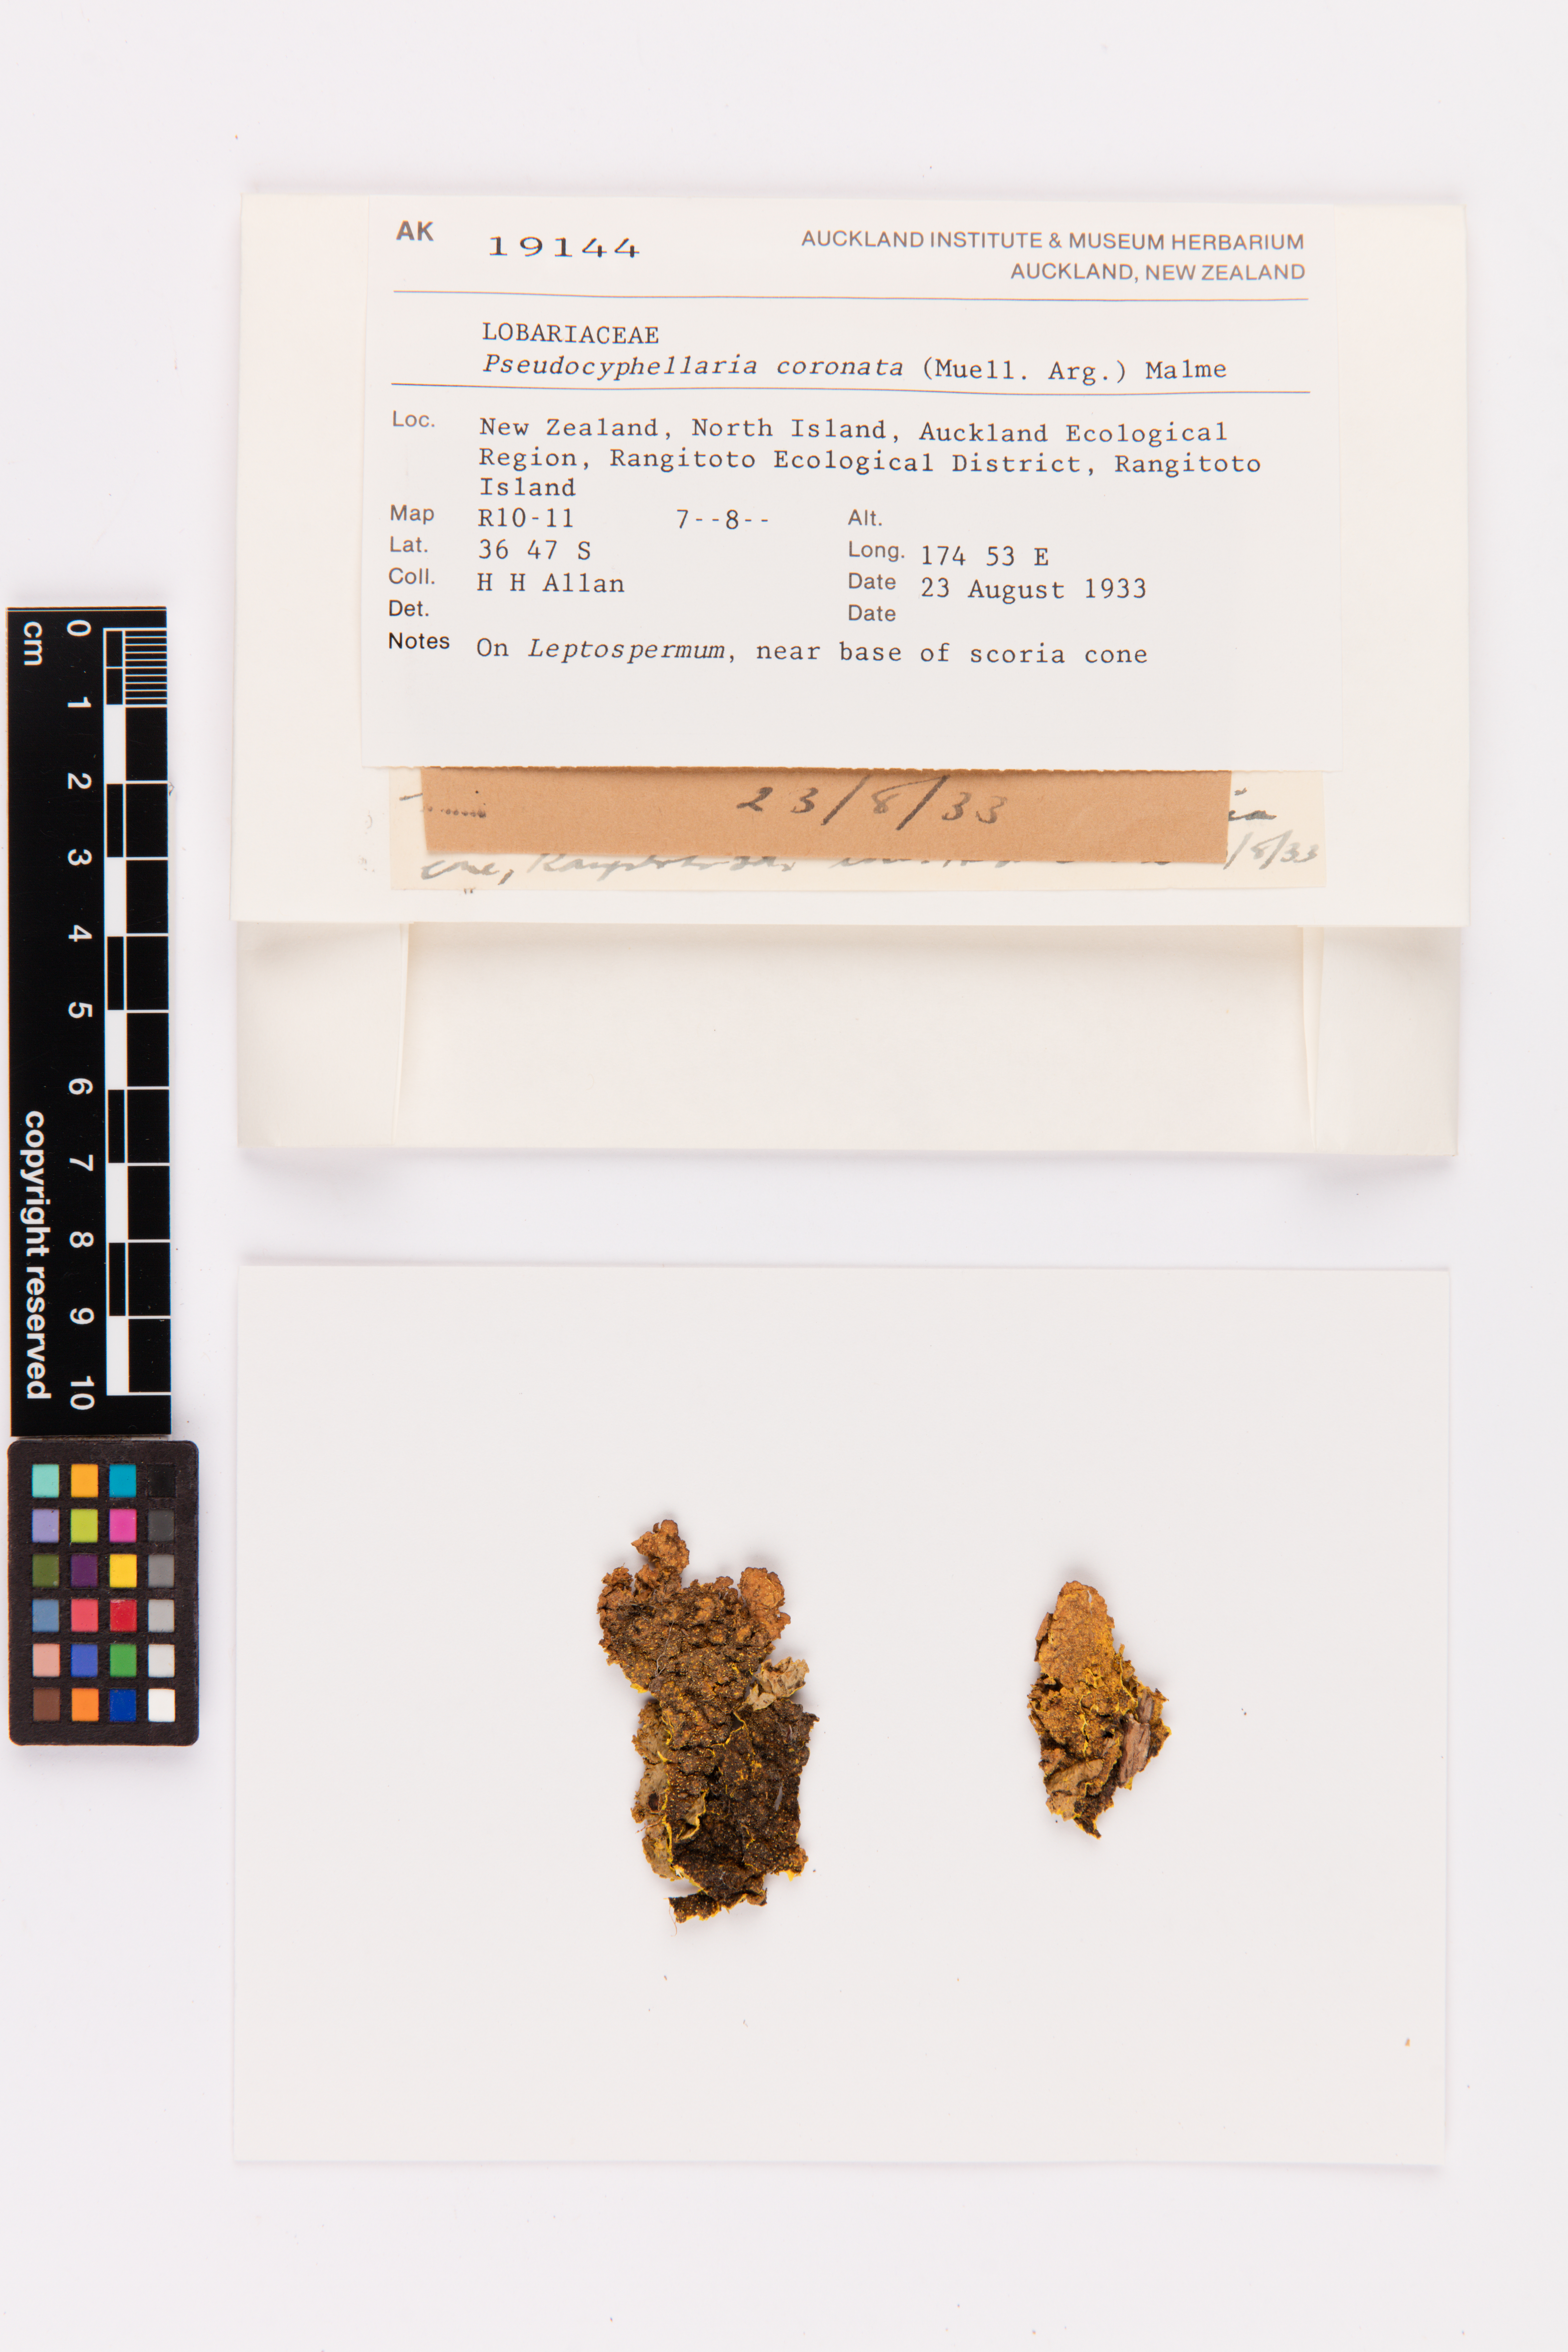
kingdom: Fungi
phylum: Ascomycota
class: Lecanoromycetes
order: Peltigerales
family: Lobariaceae
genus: Yarrumia
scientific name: Yarrumia coronata
